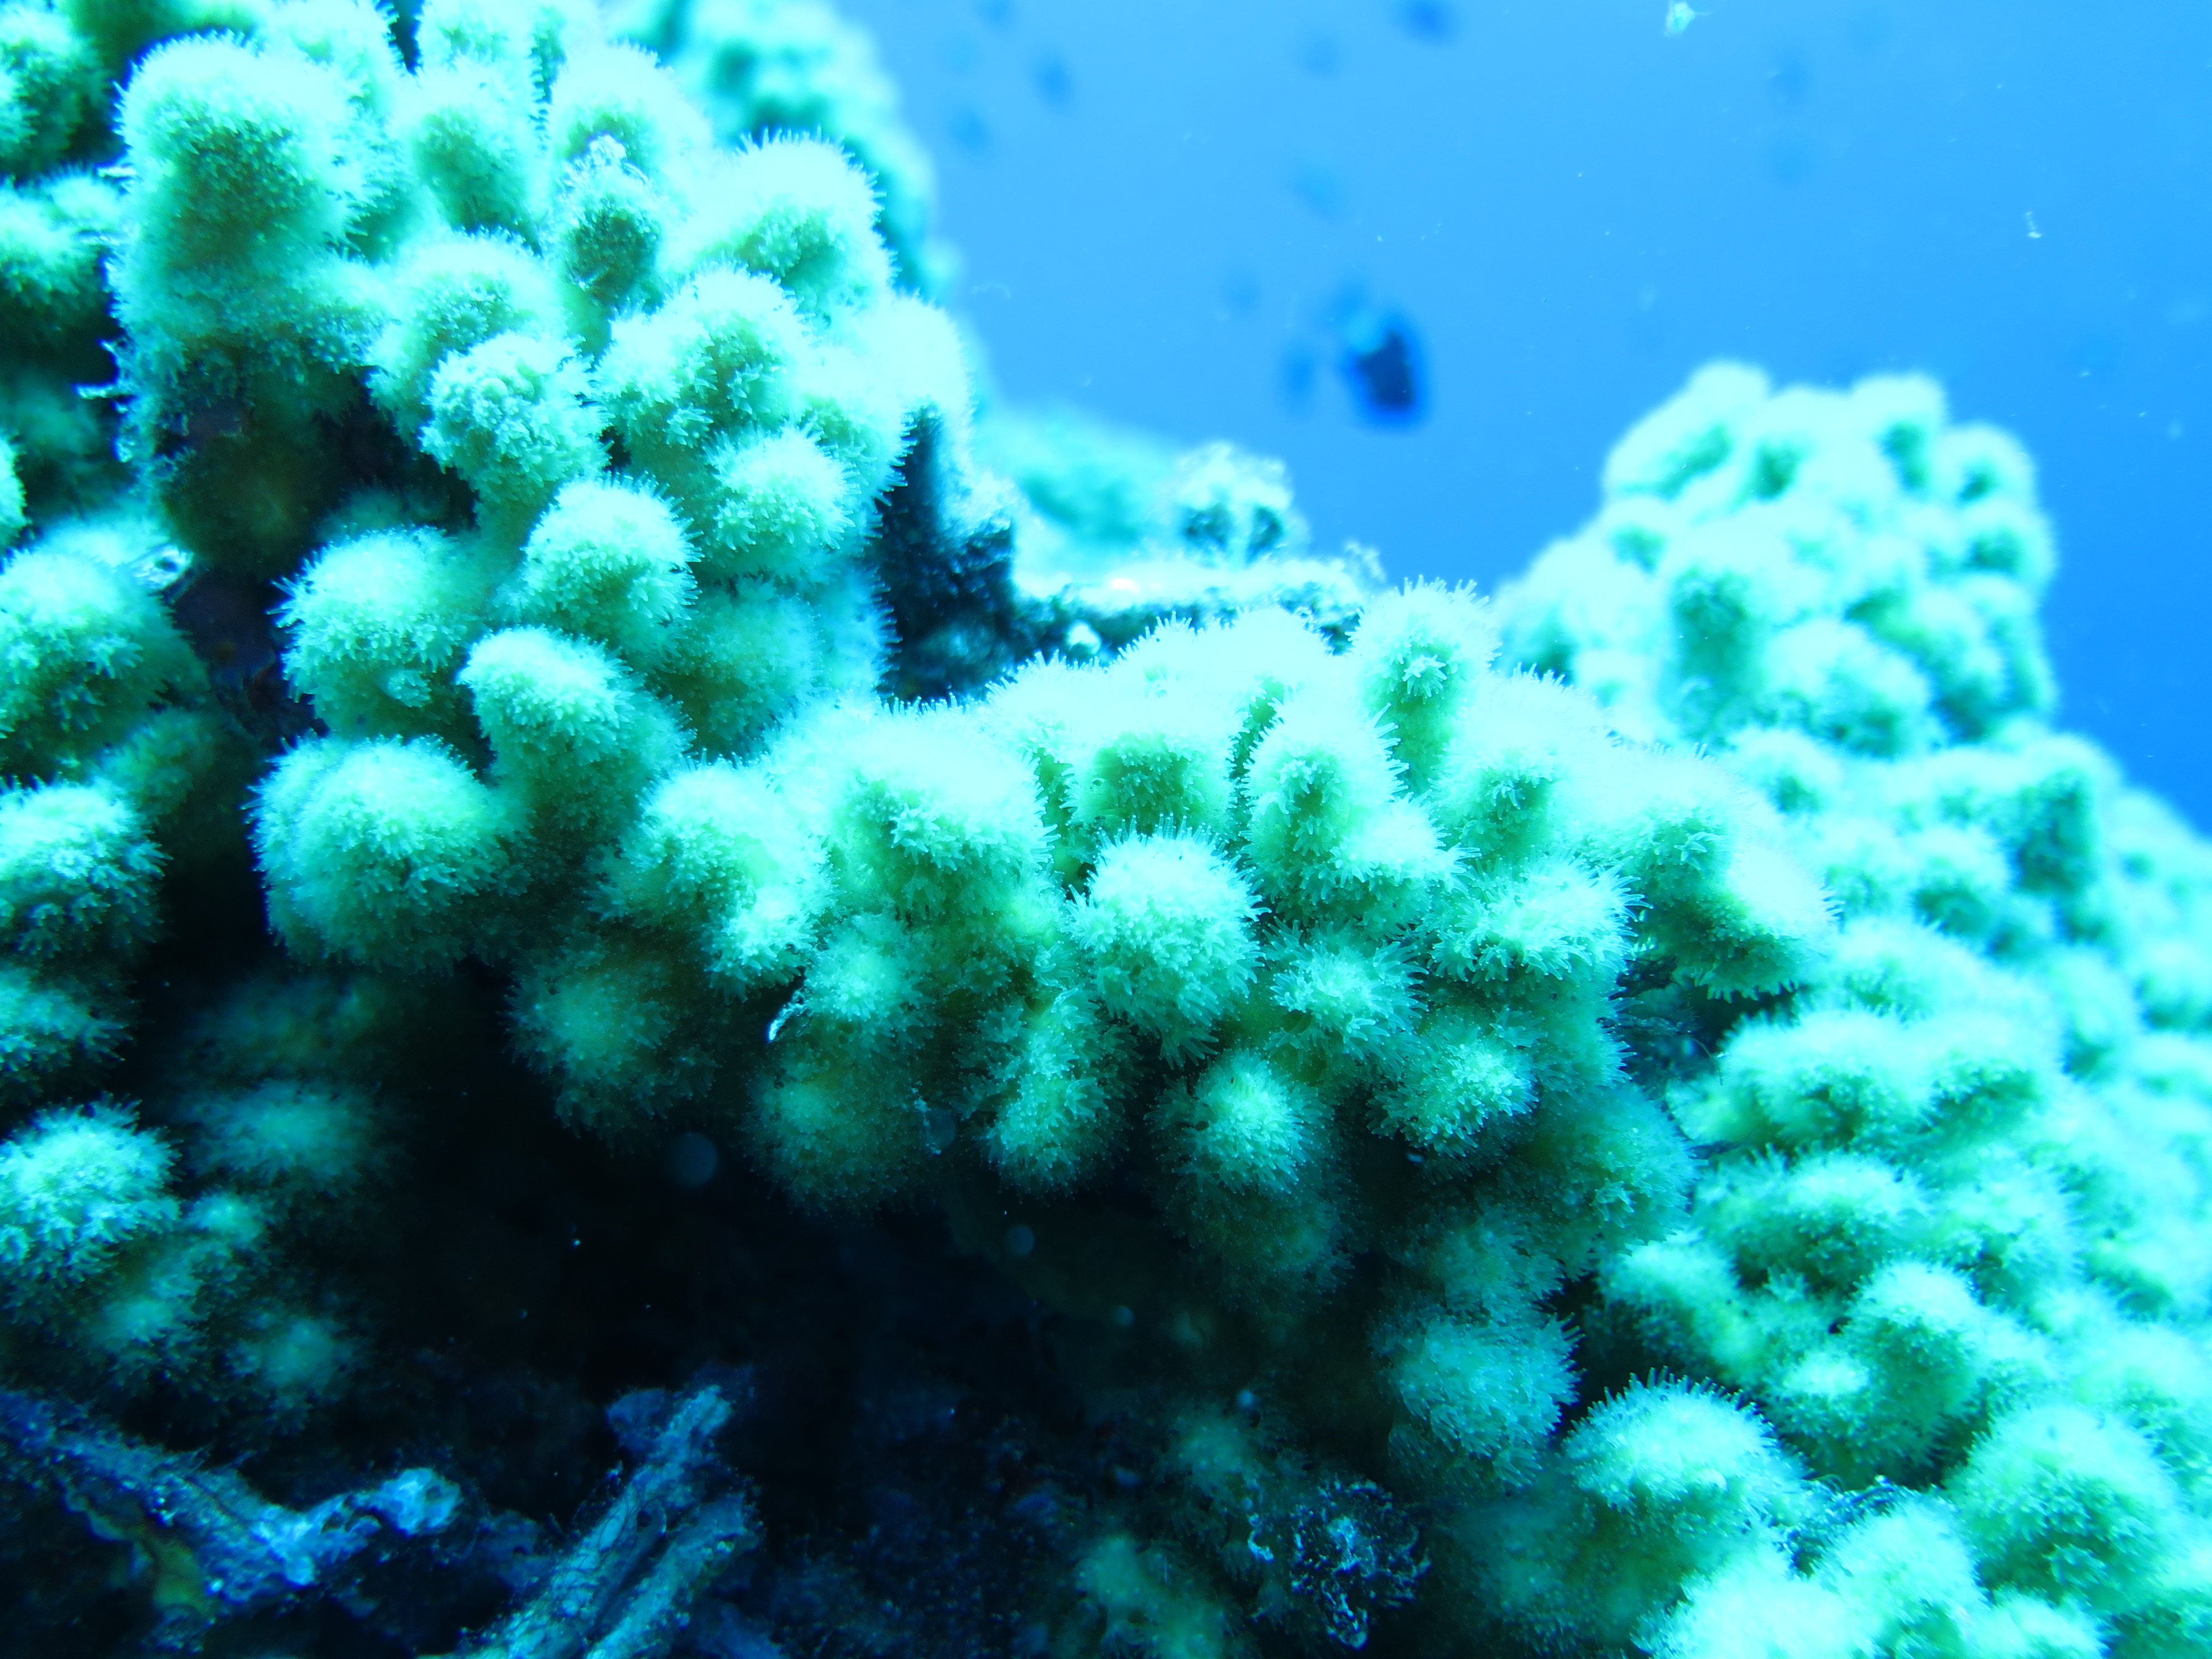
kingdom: Animalia
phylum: Cnidaria
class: Anthozoa
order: Scleractinia
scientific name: Scleractinia
